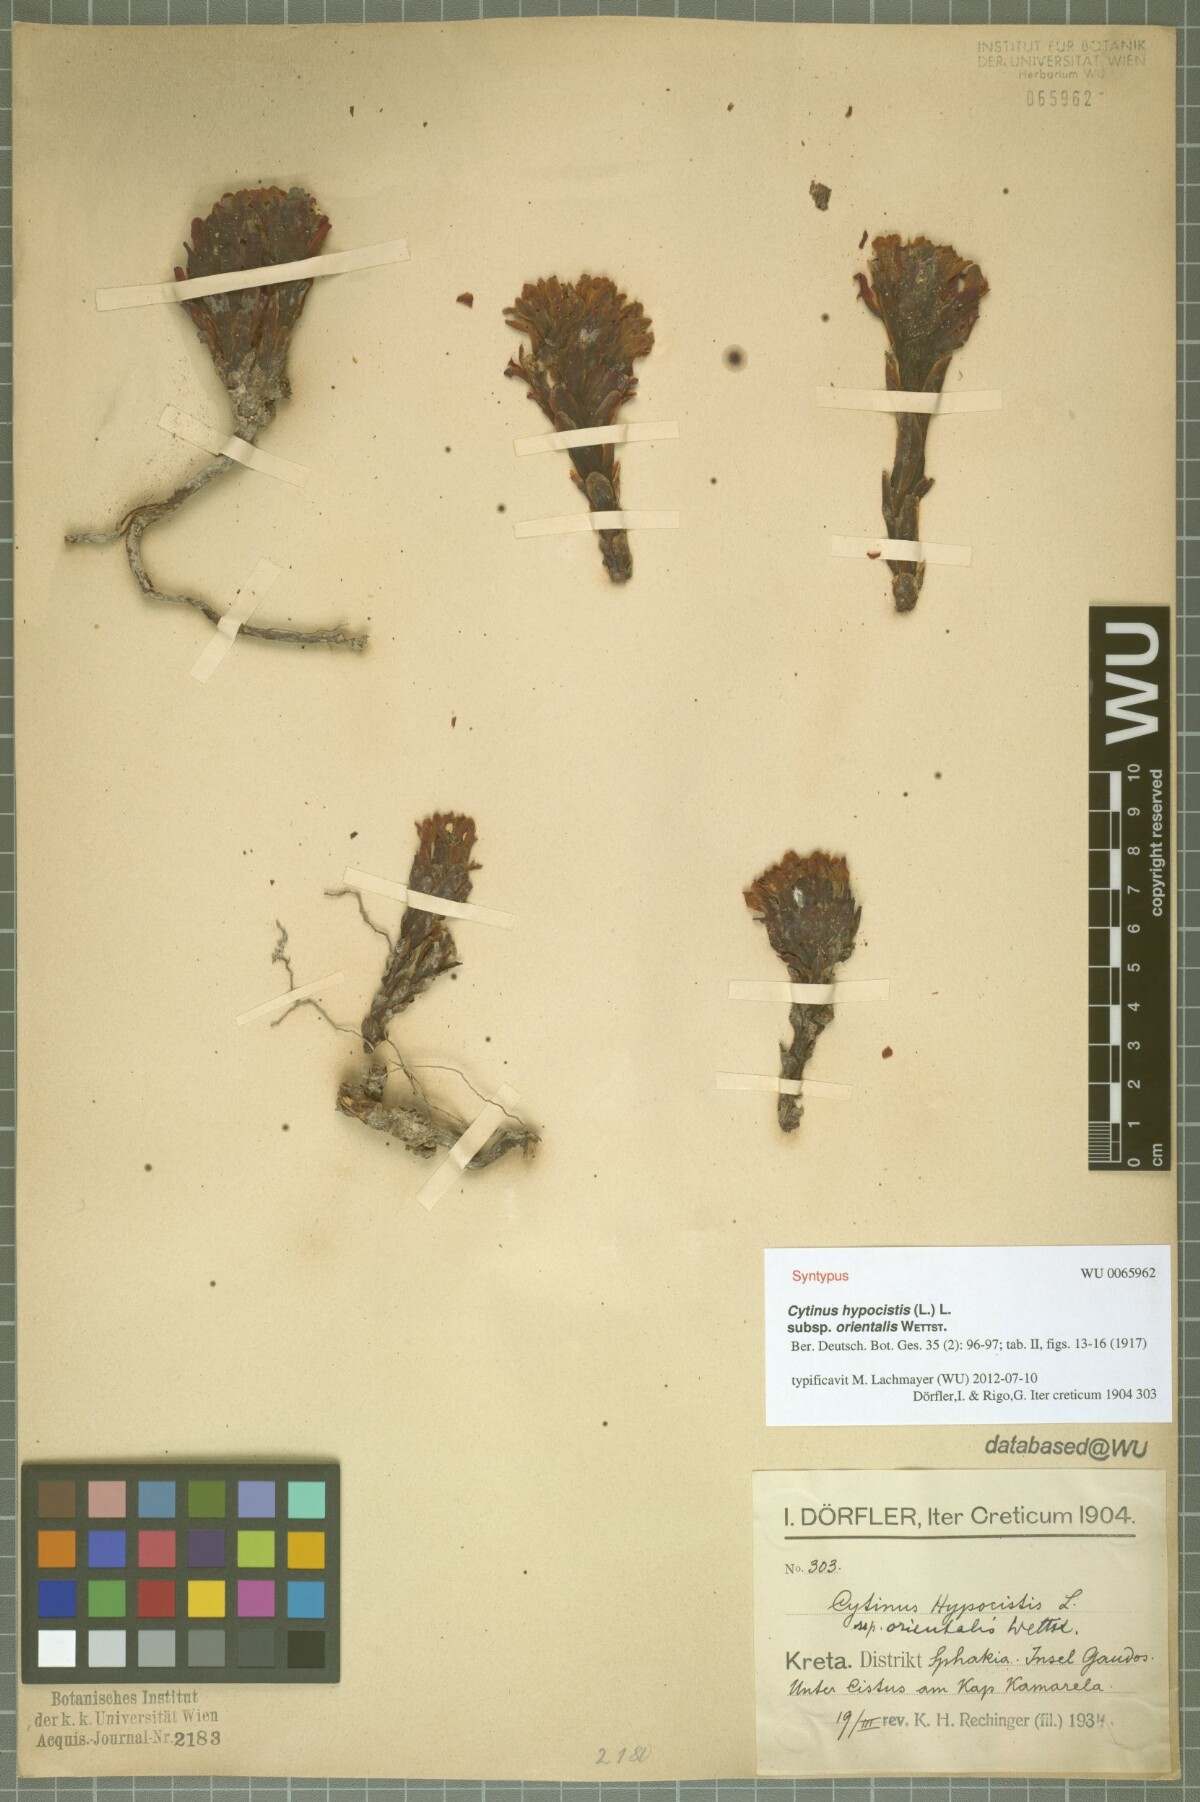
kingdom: Plantae
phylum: Tracheophyta
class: Magnoliopsida
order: Malvales
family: Cytinaceae
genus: Cytinus
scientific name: Cytinus ruber
